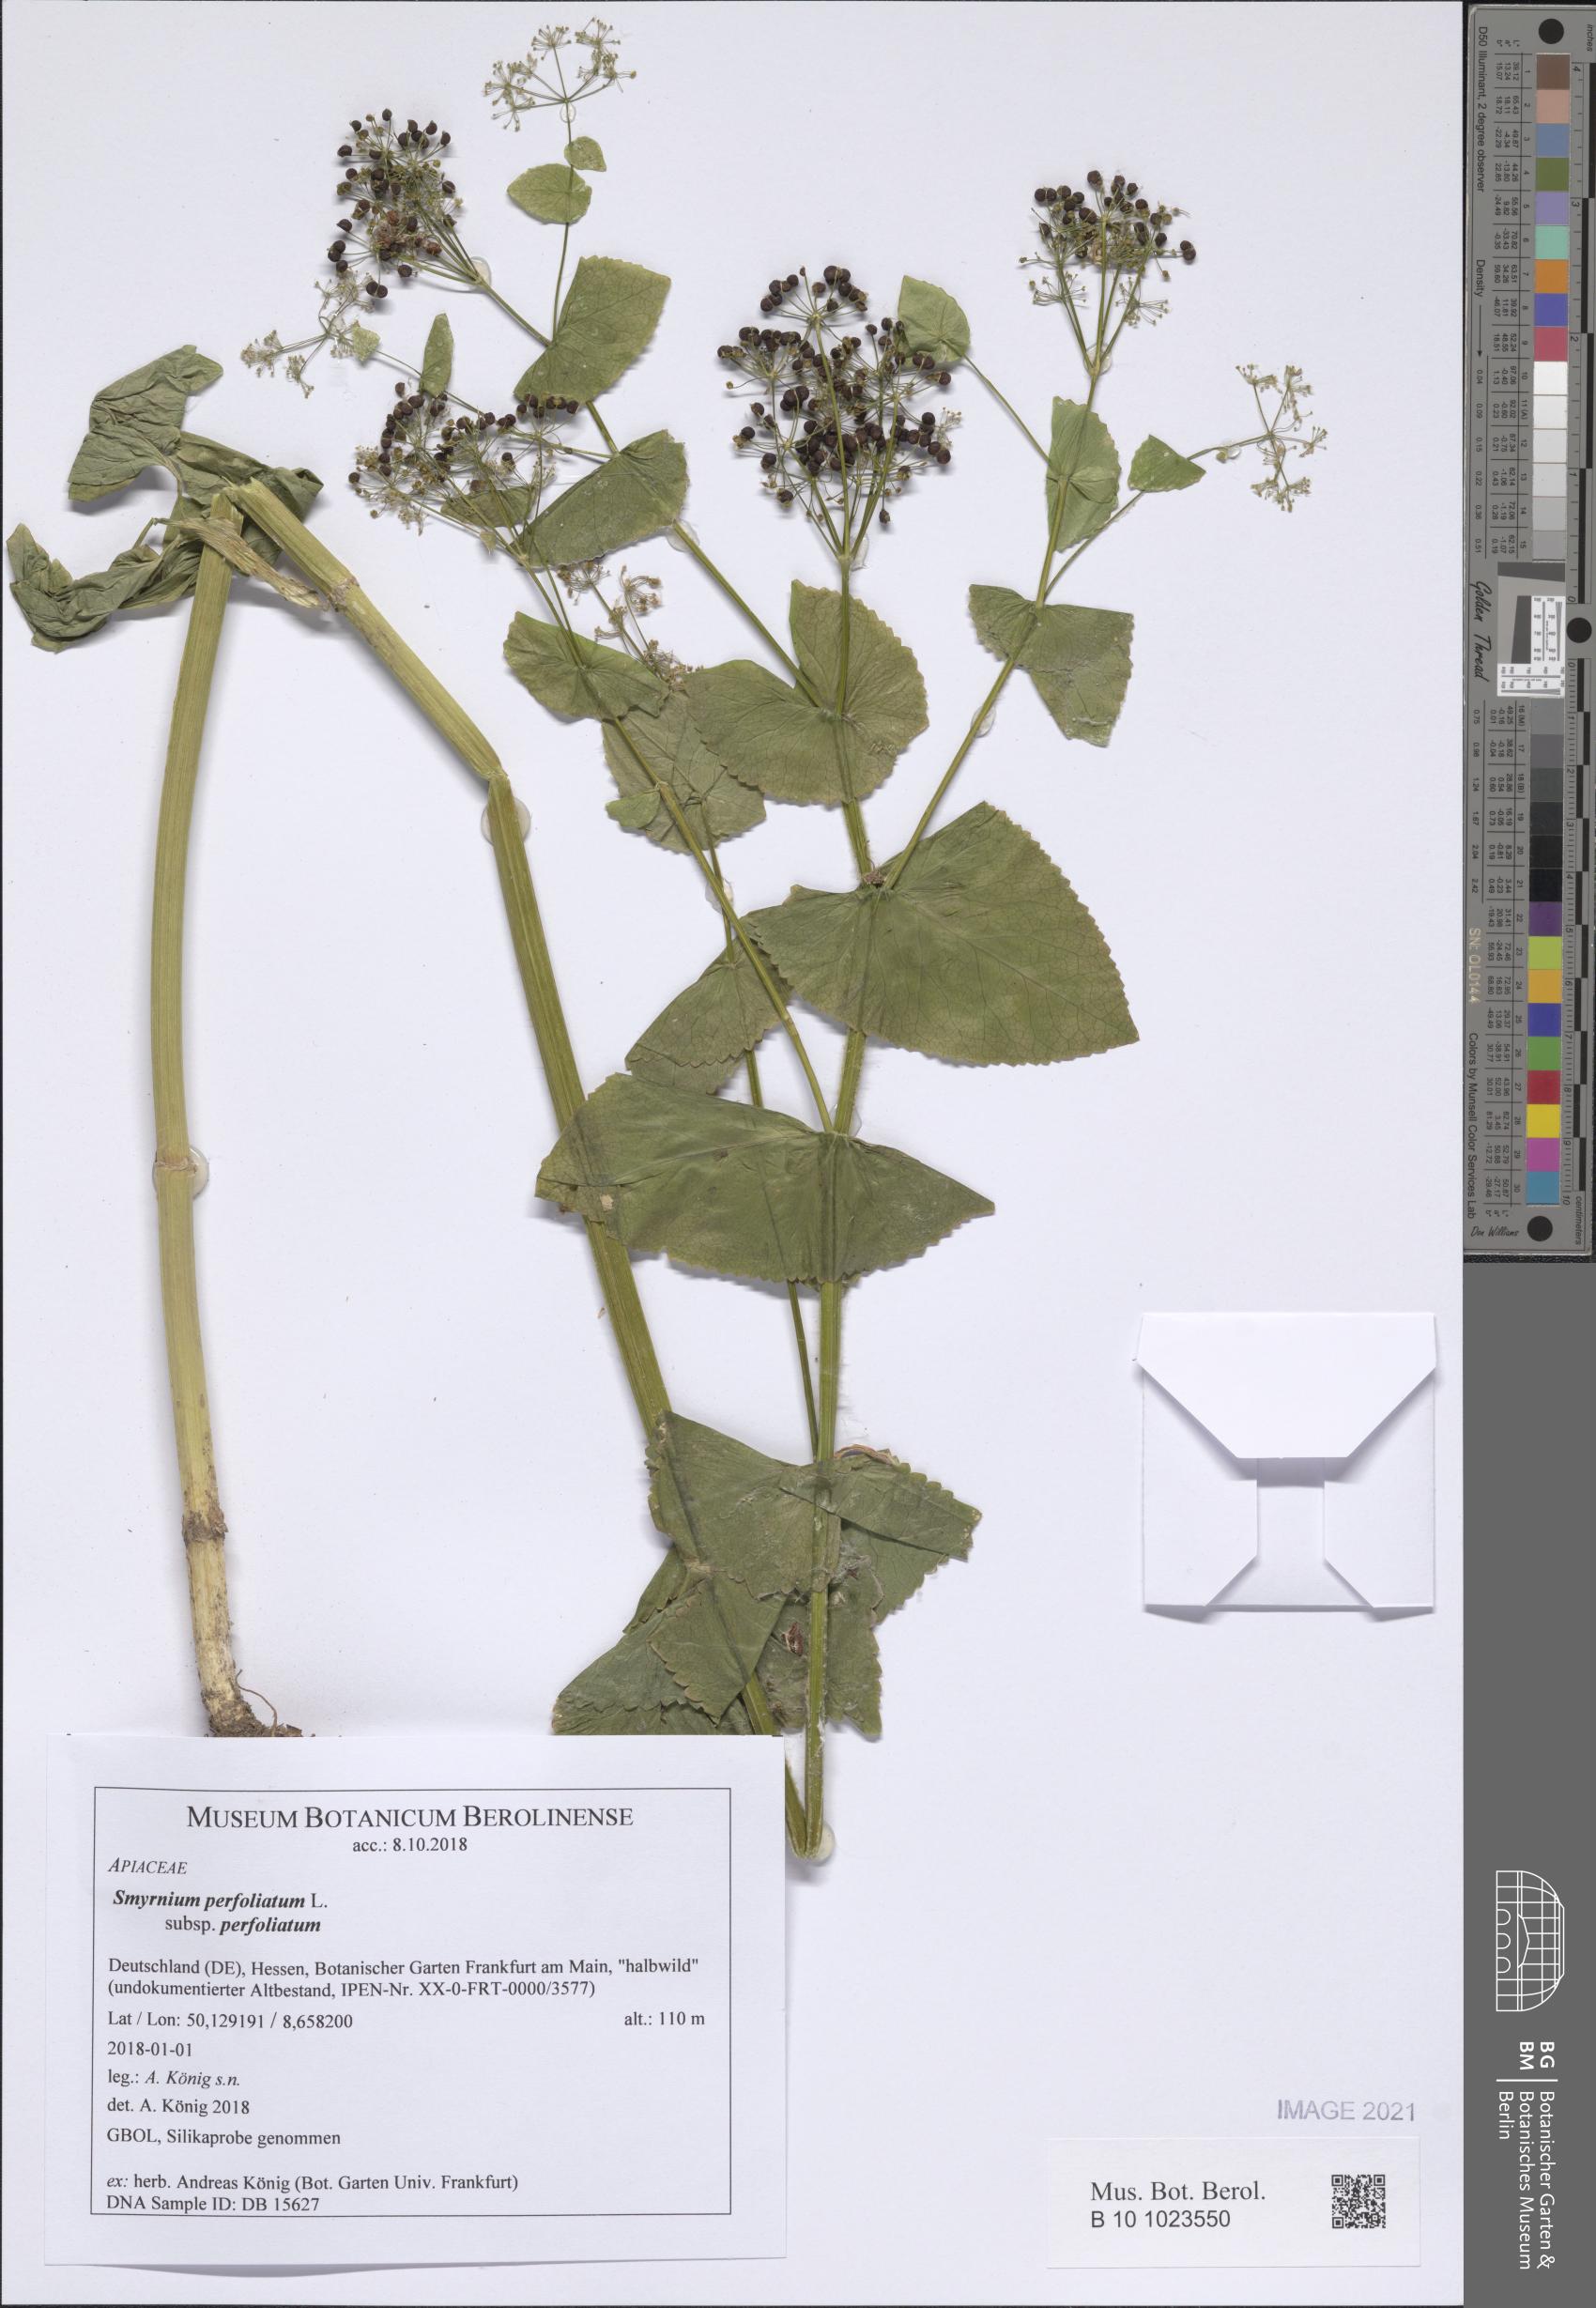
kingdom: Plantae
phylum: Tracheophyta
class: Magnoliopsida
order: Apiales
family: Apiaceae
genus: Smyrnium
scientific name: Smyrnium perfoliatum
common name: Perfoliate alexanders
